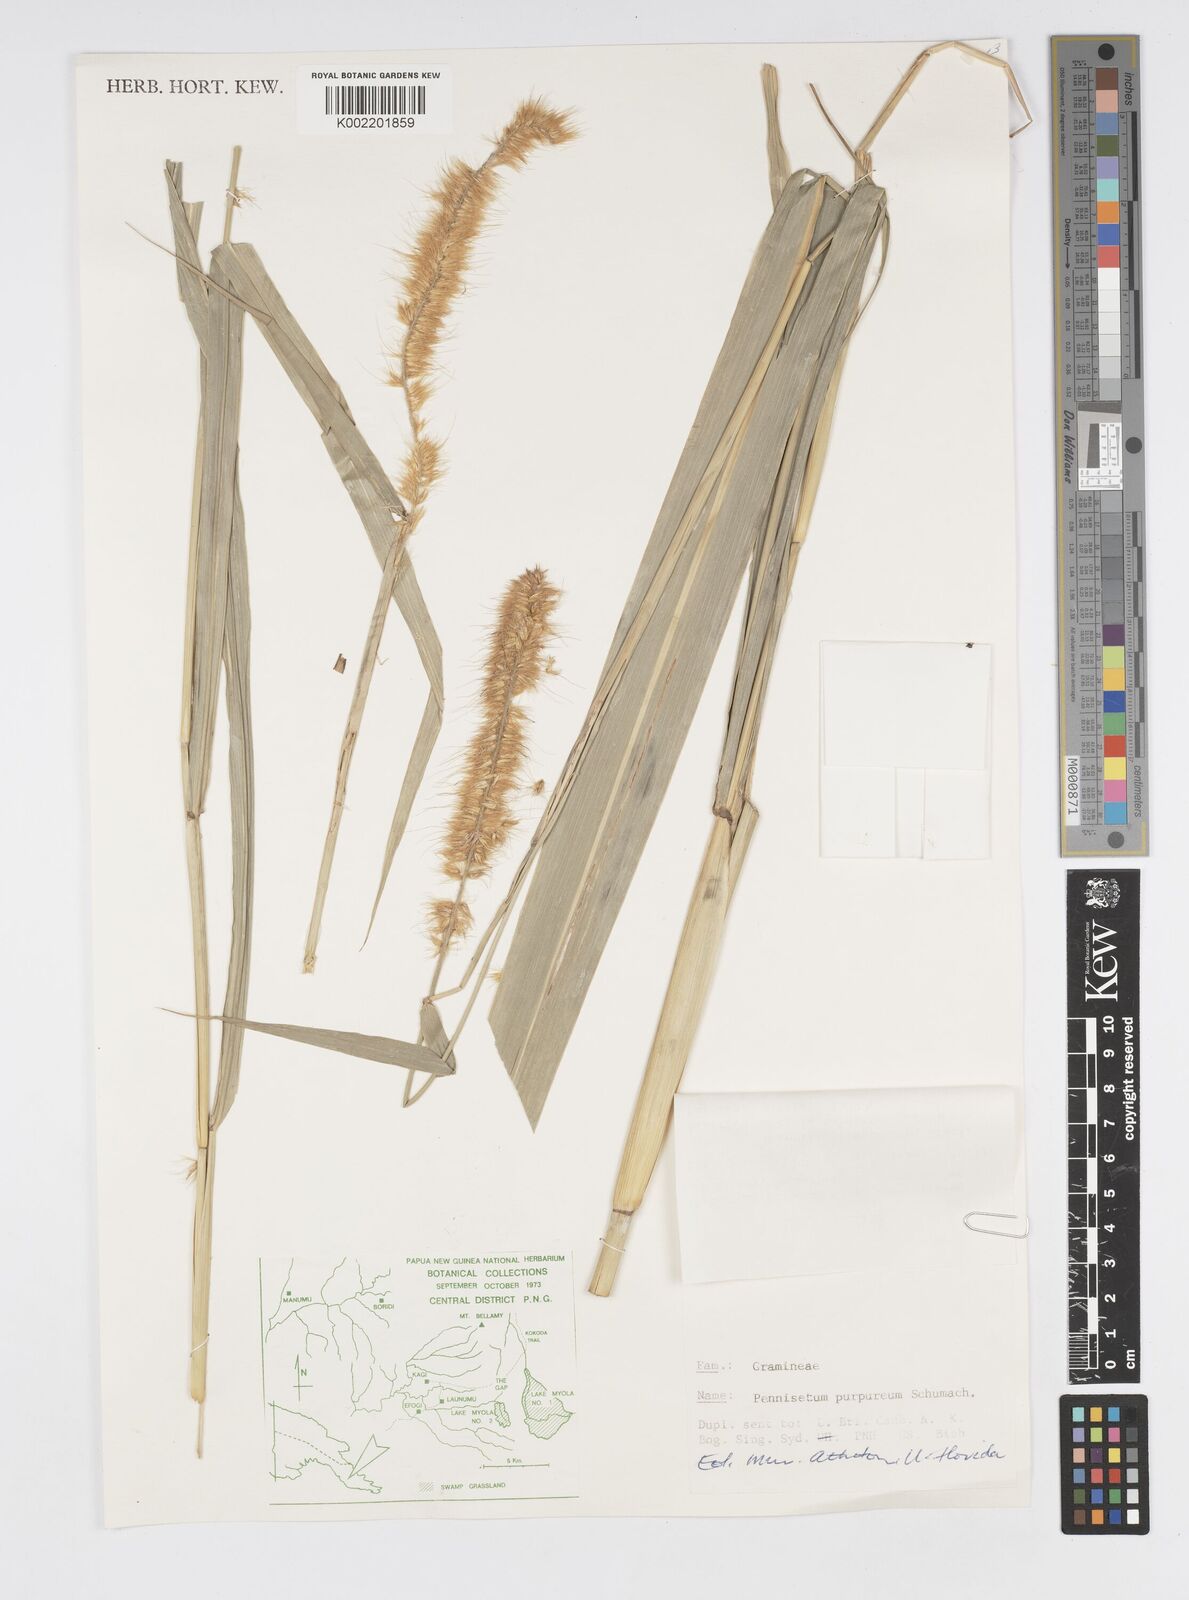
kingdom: Plantae
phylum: Tracheophyta
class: Liliopsida
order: Poales
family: Poaceae
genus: Cenchrus
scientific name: Cenchrus purpureus
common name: Elephant grass
